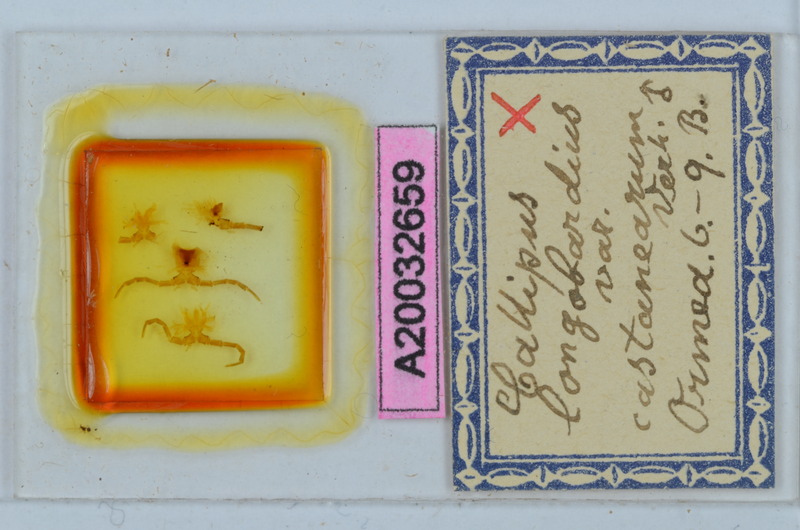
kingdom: Animalia
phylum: Arthropoda
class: Diplopoda
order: Callipodida
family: Callipodidae
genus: Callipus
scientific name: Callipus foetidissimus
